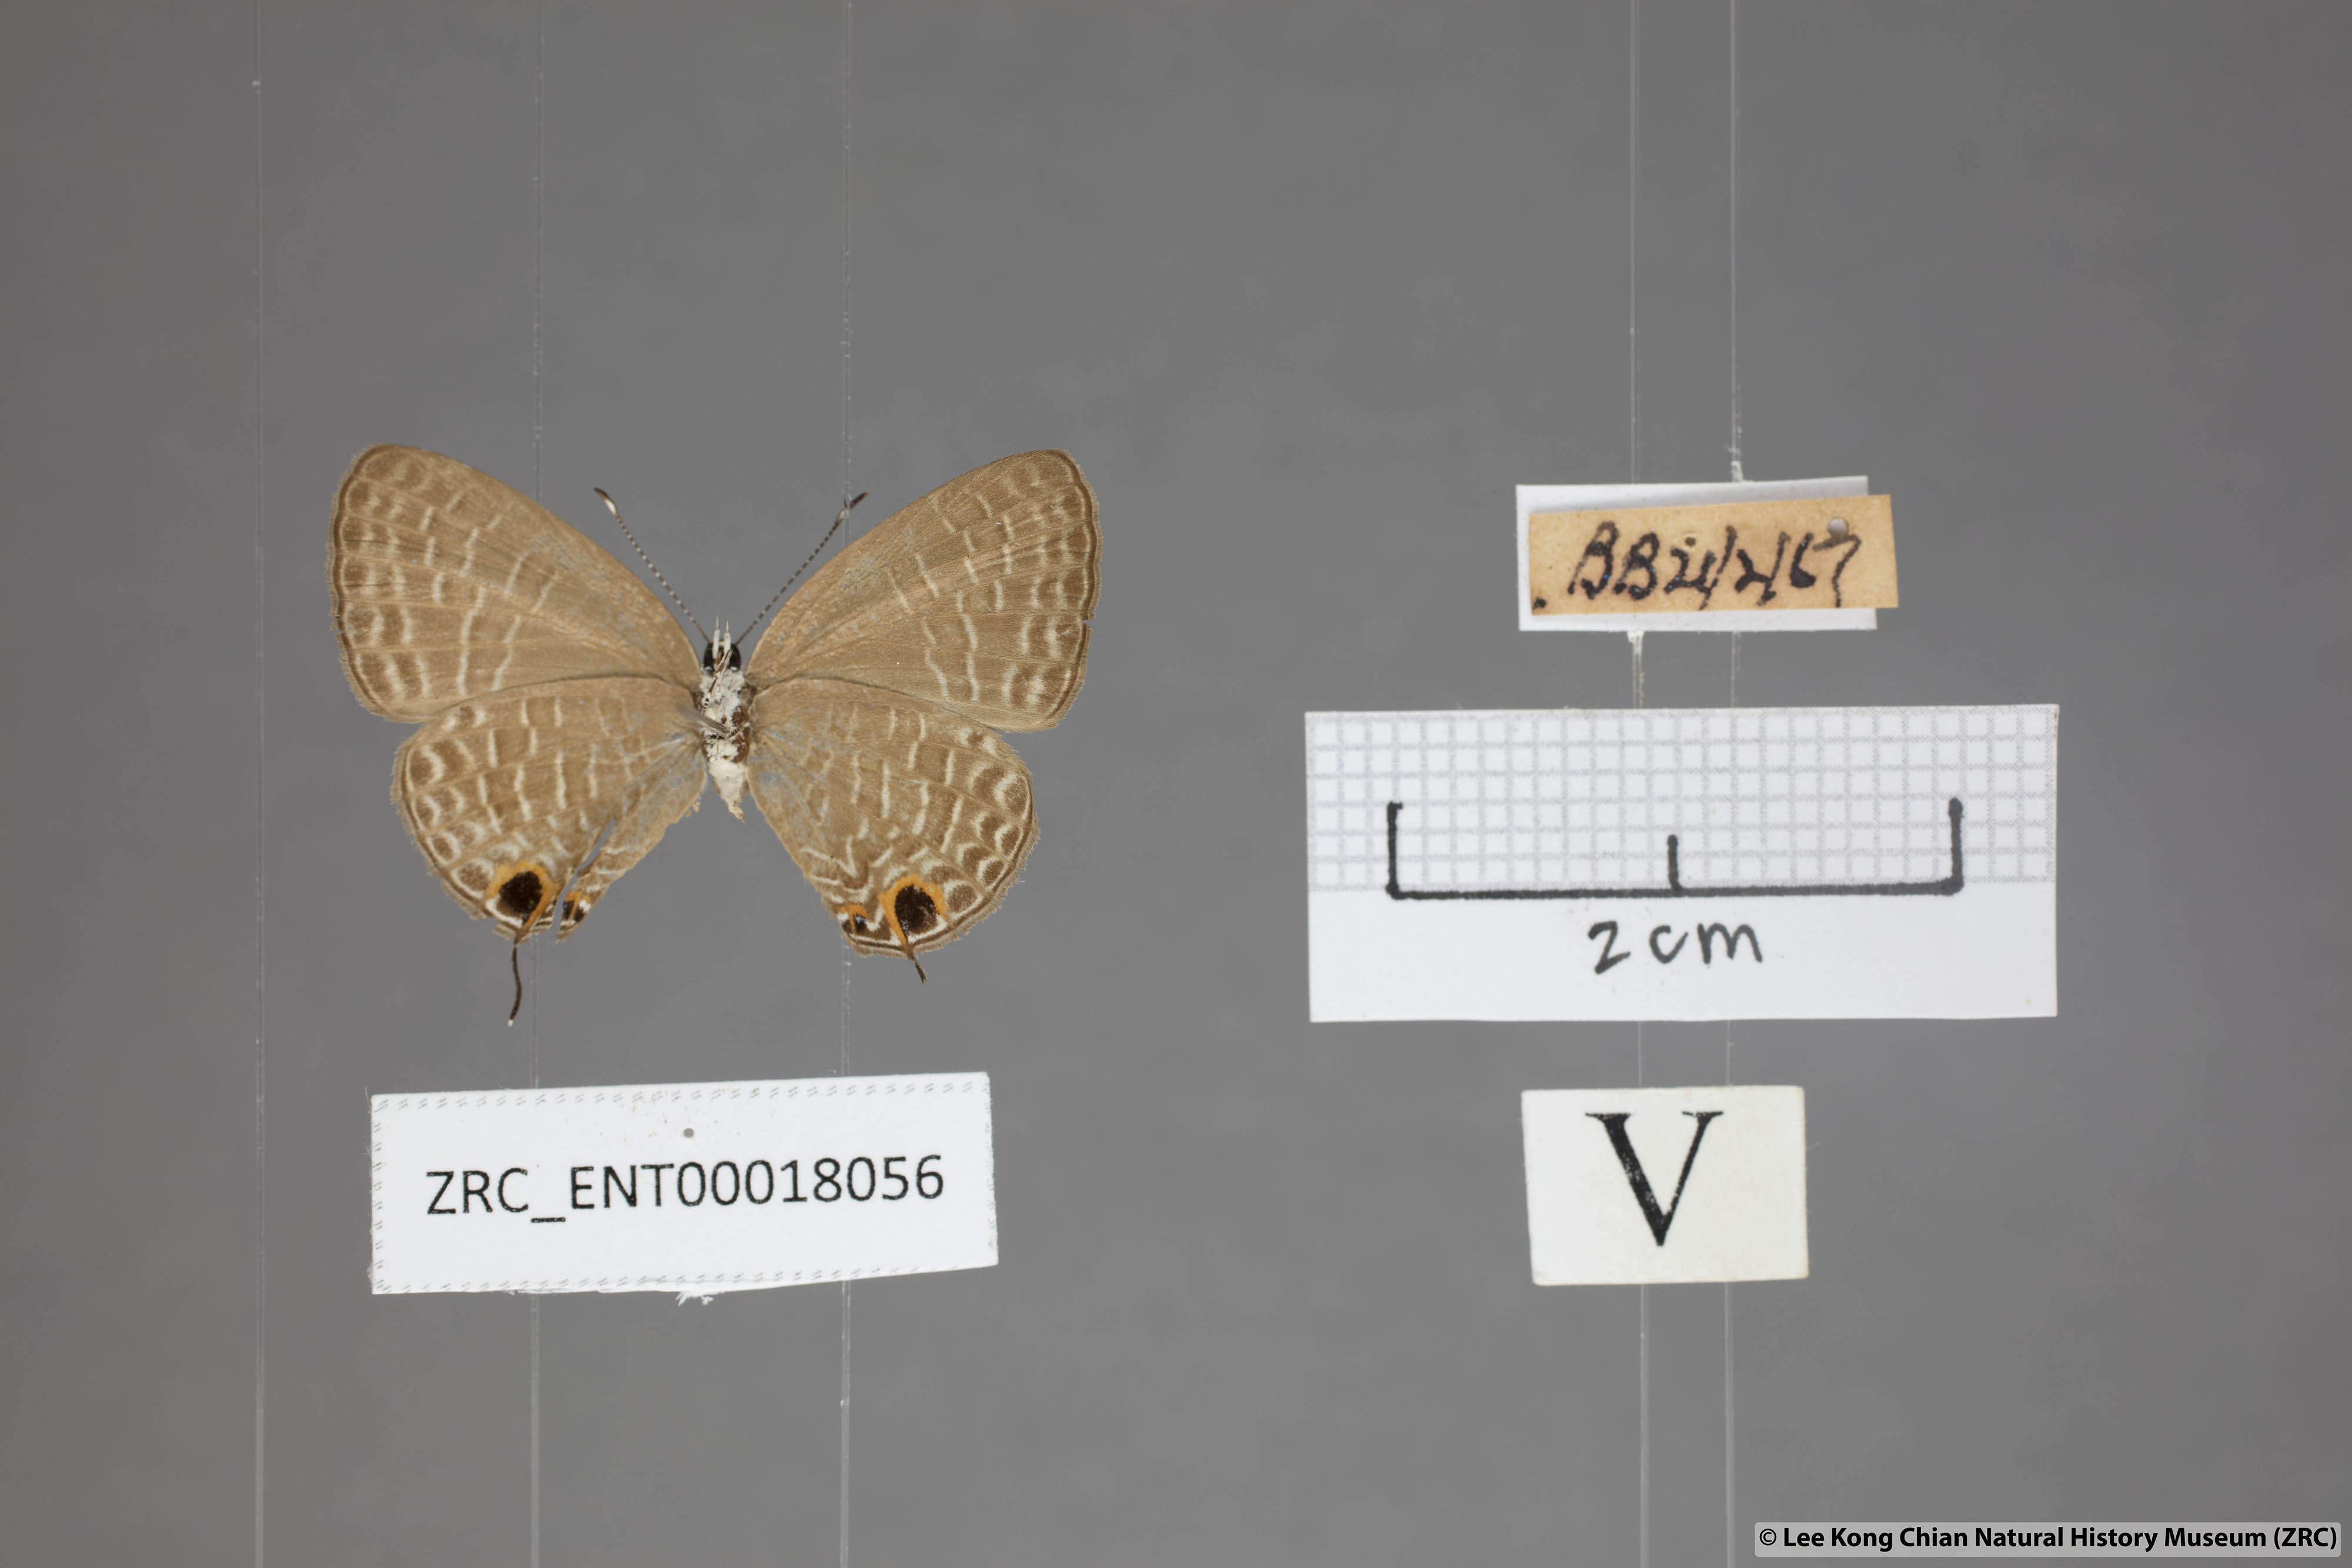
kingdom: Animalia
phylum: Arthropoda
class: Insecta
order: Lepidoptera
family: Lycaenidae
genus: Jamides
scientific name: Jamides bochus
